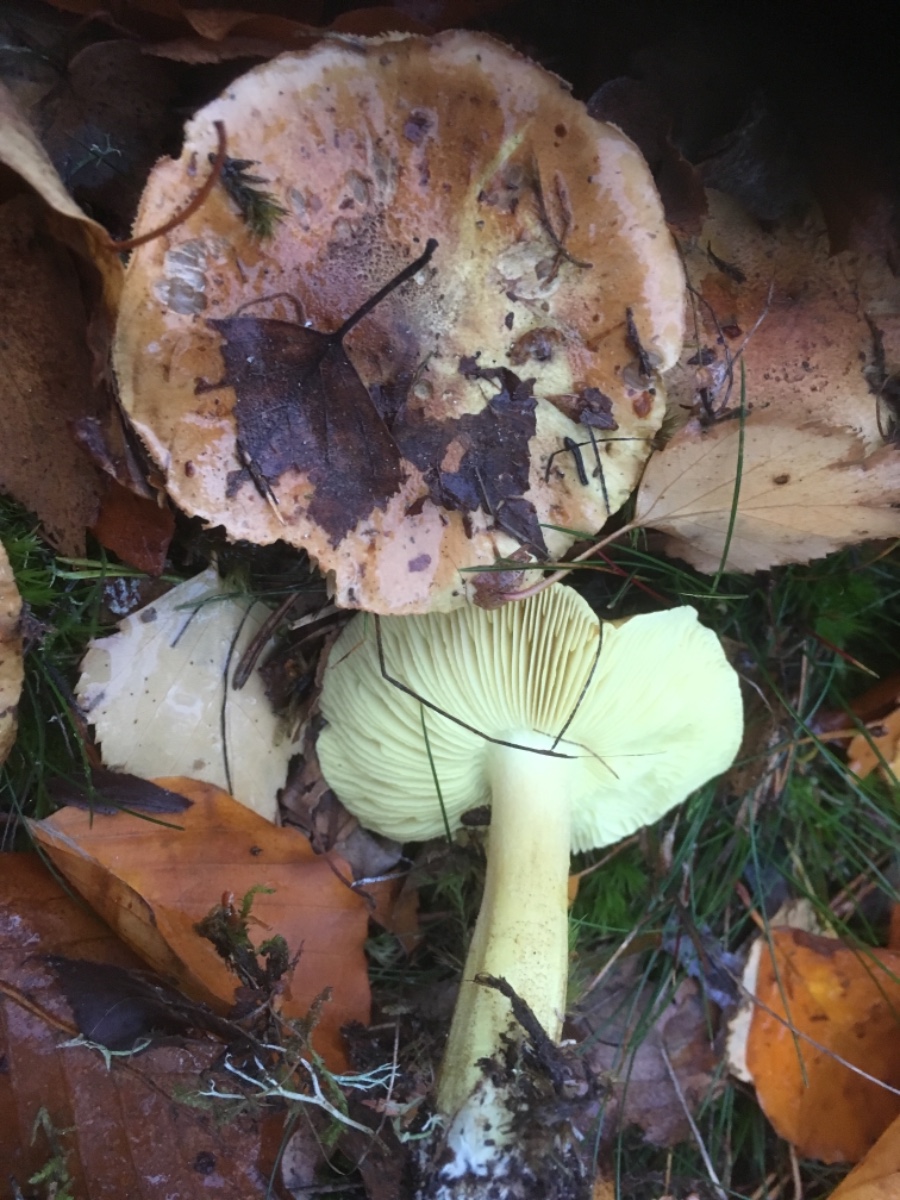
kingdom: Fungi
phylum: Basidiomycota
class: Agaricomycetes
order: Agaricales
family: Tricholomataceae
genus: Tricholoma
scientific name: Tricholoma equestre
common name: ægte ridderhat
